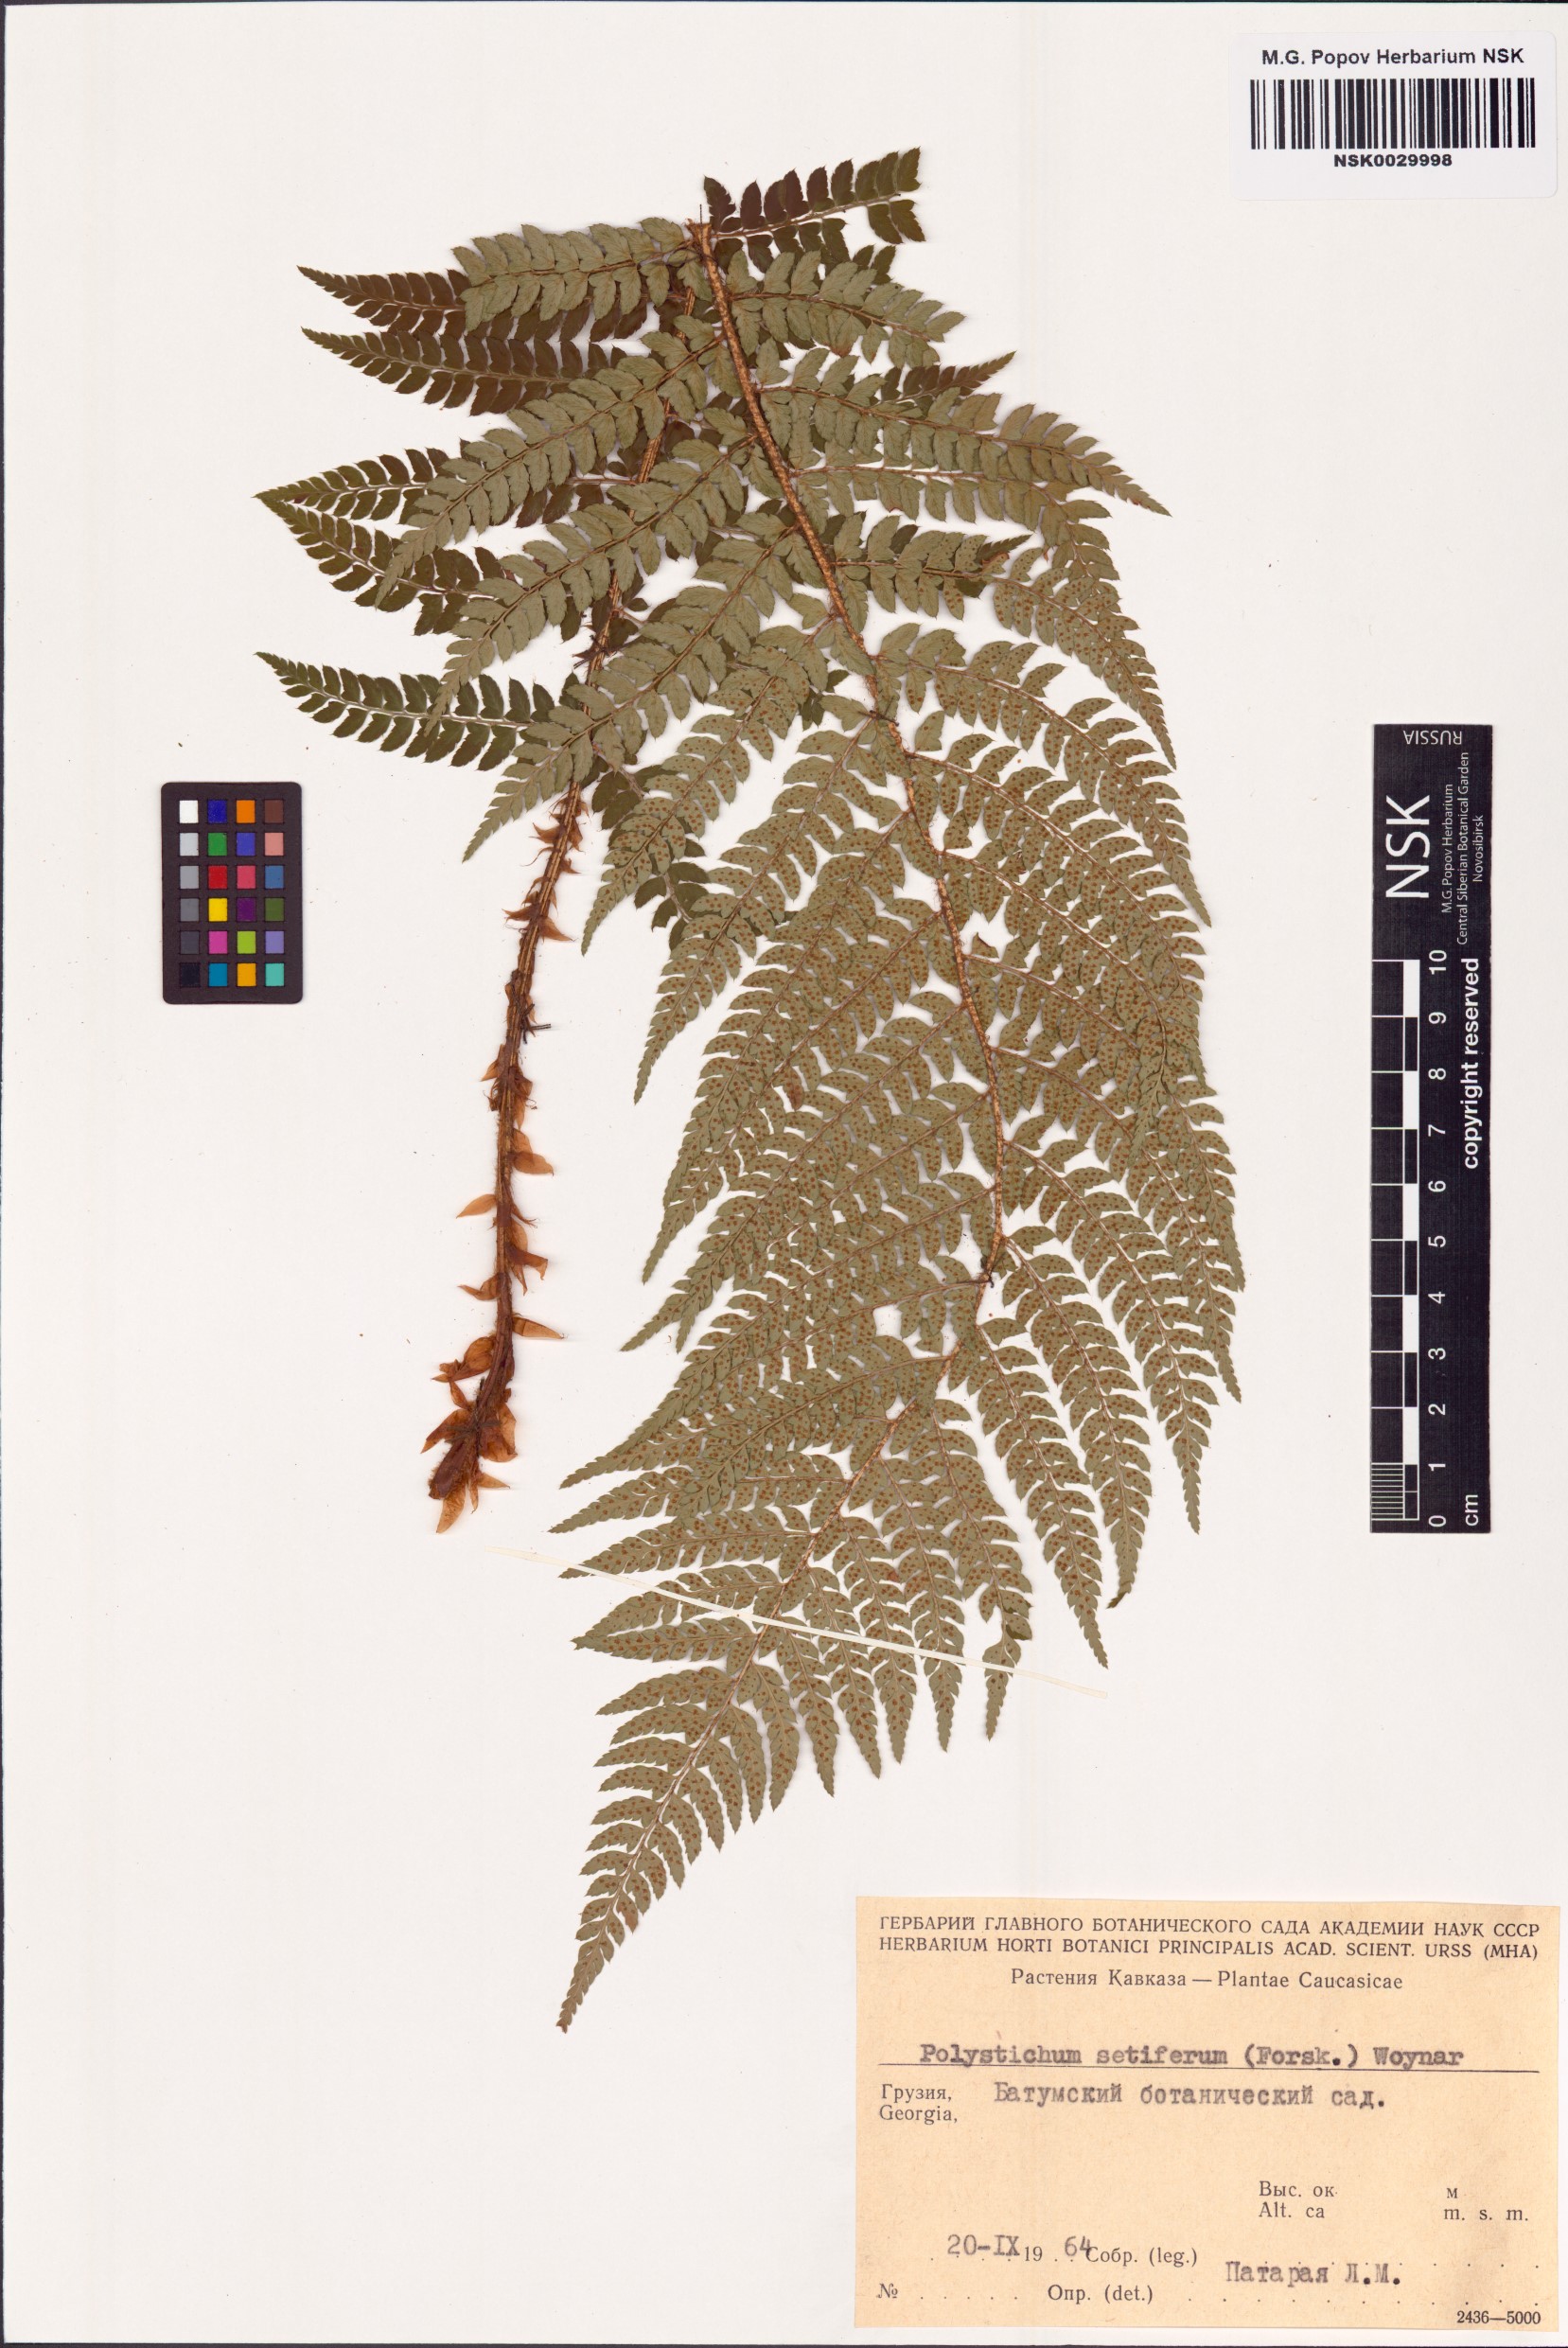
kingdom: Plantae
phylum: Tracheophyta
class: Polypodiopsida
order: Polypodiales
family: Dryopteridaceae
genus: Polystichum
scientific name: Polystichum setiferum
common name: Soft shield-fern
